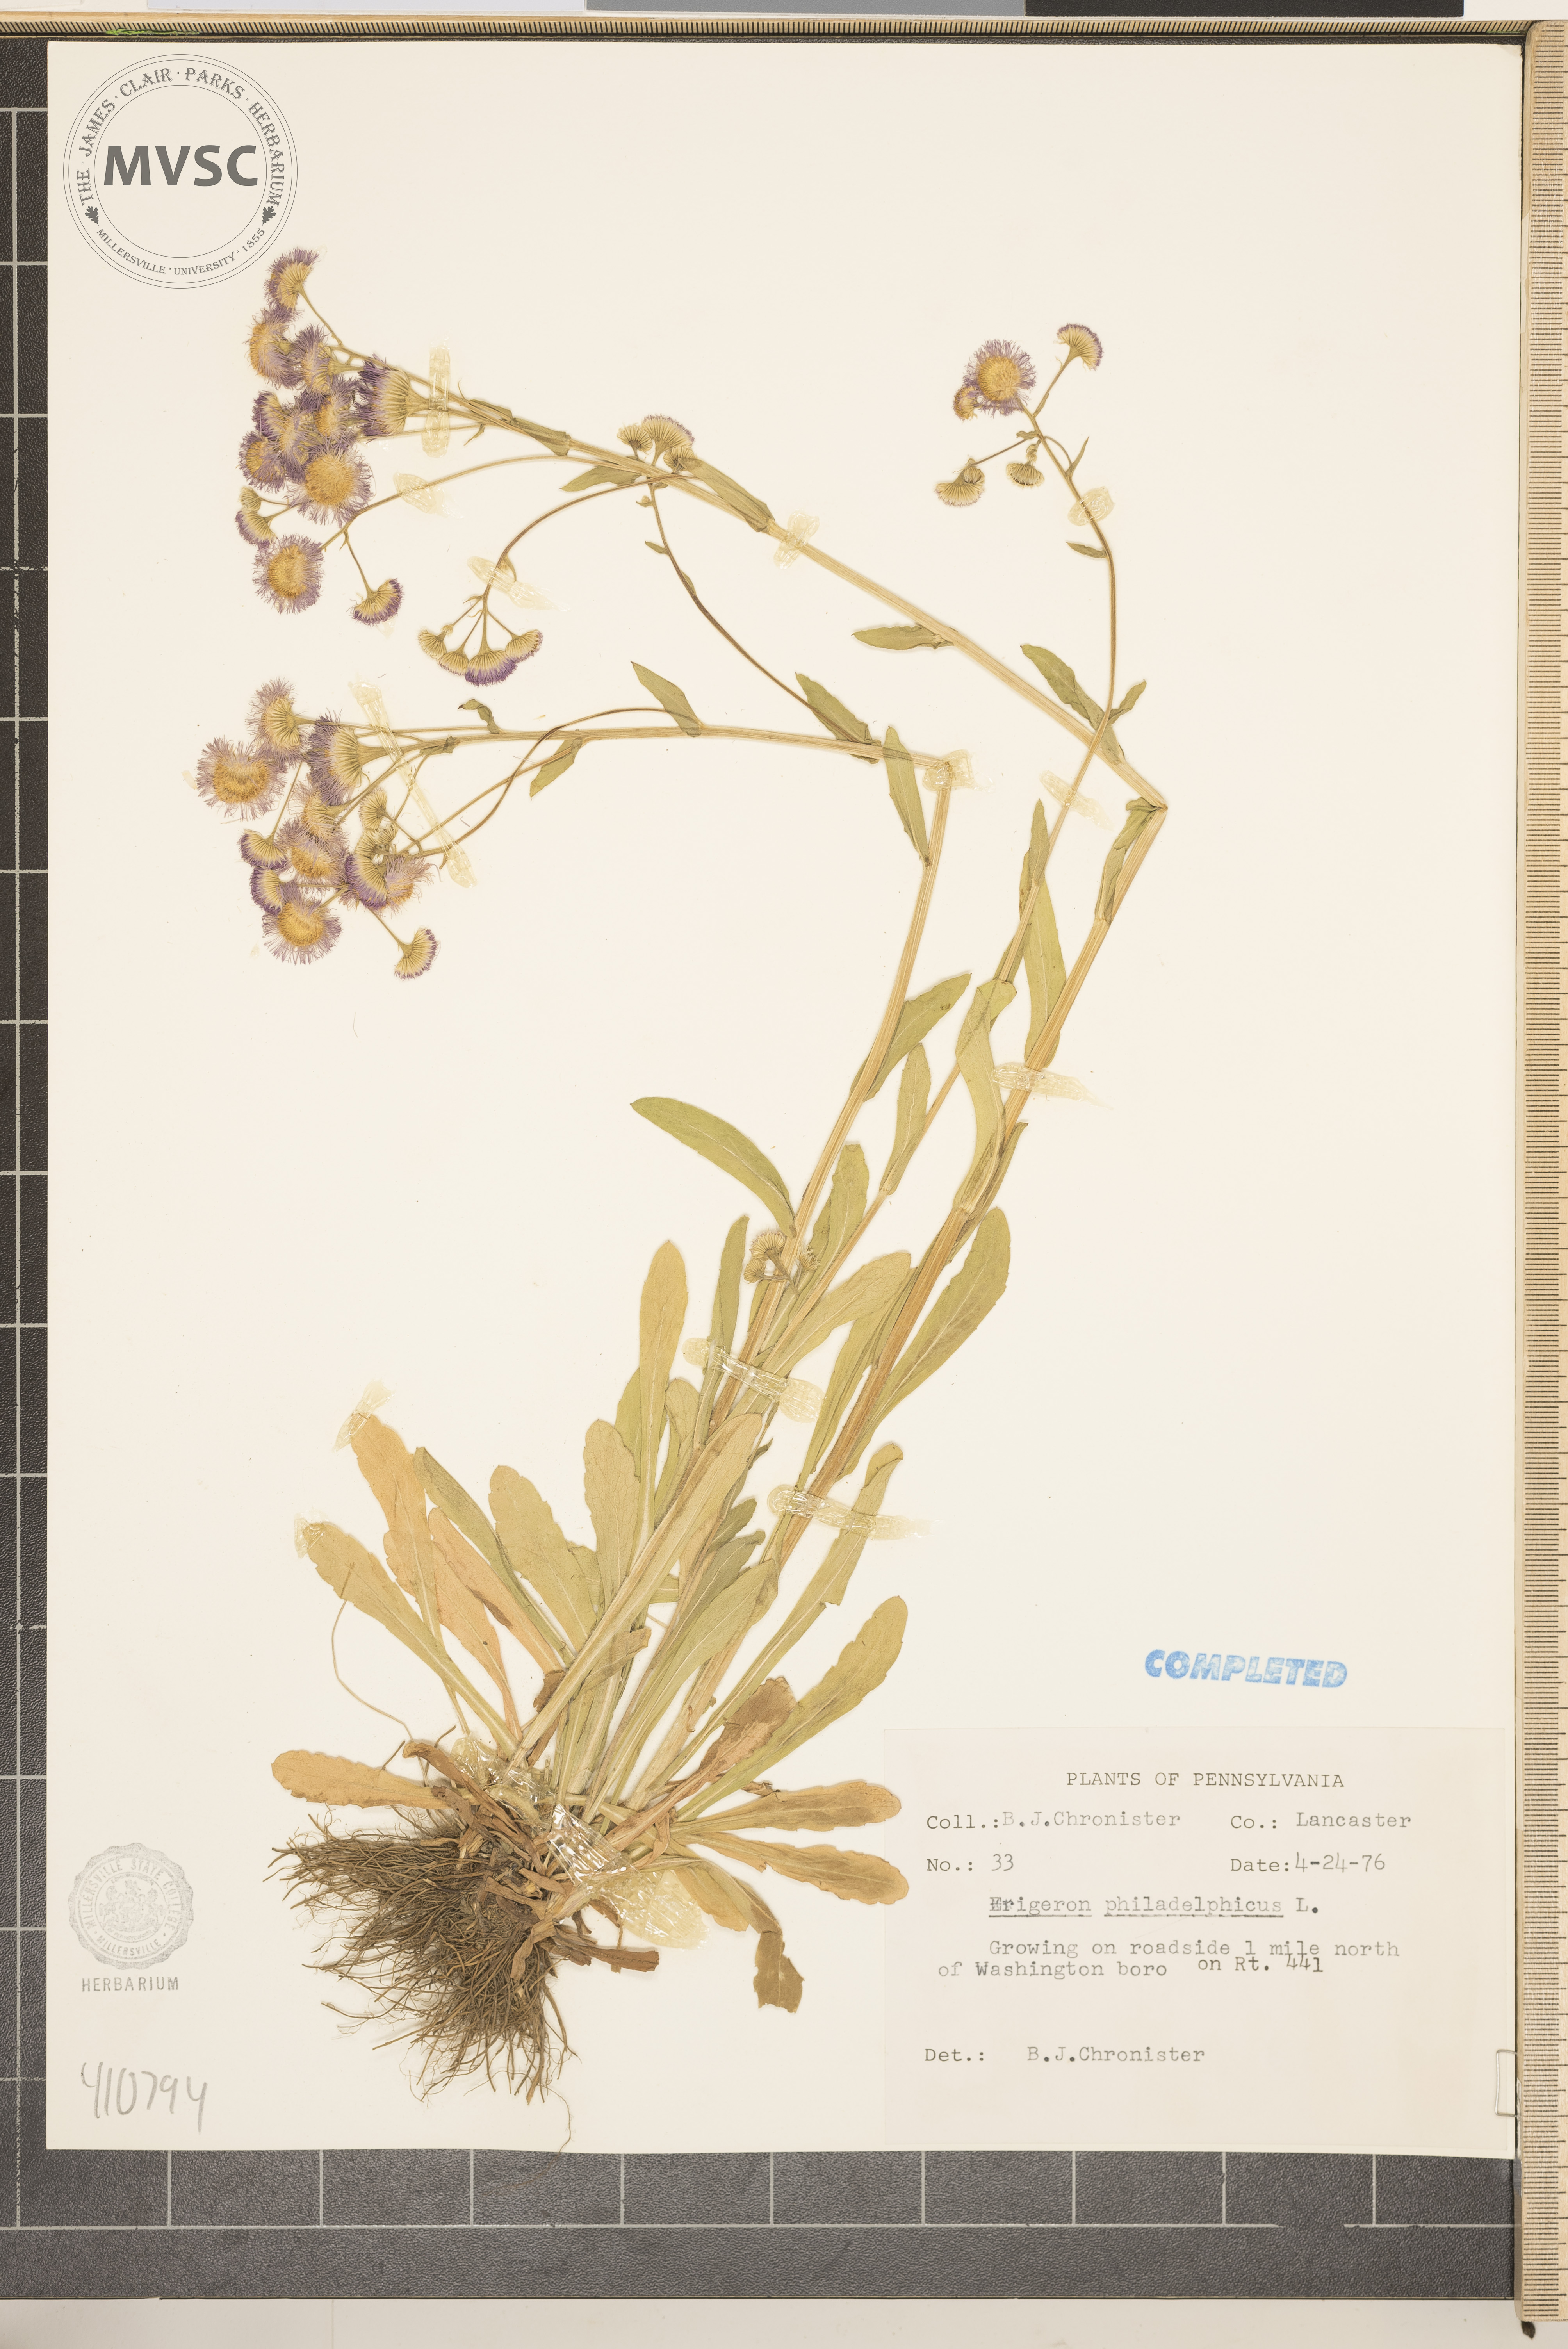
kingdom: Plantae
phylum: Tracheophyta
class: Magnoliopsida
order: Asterales
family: Asteraceae
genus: Erigeron
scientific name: Erigeron philadelphicus
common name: Robin's-plantain
